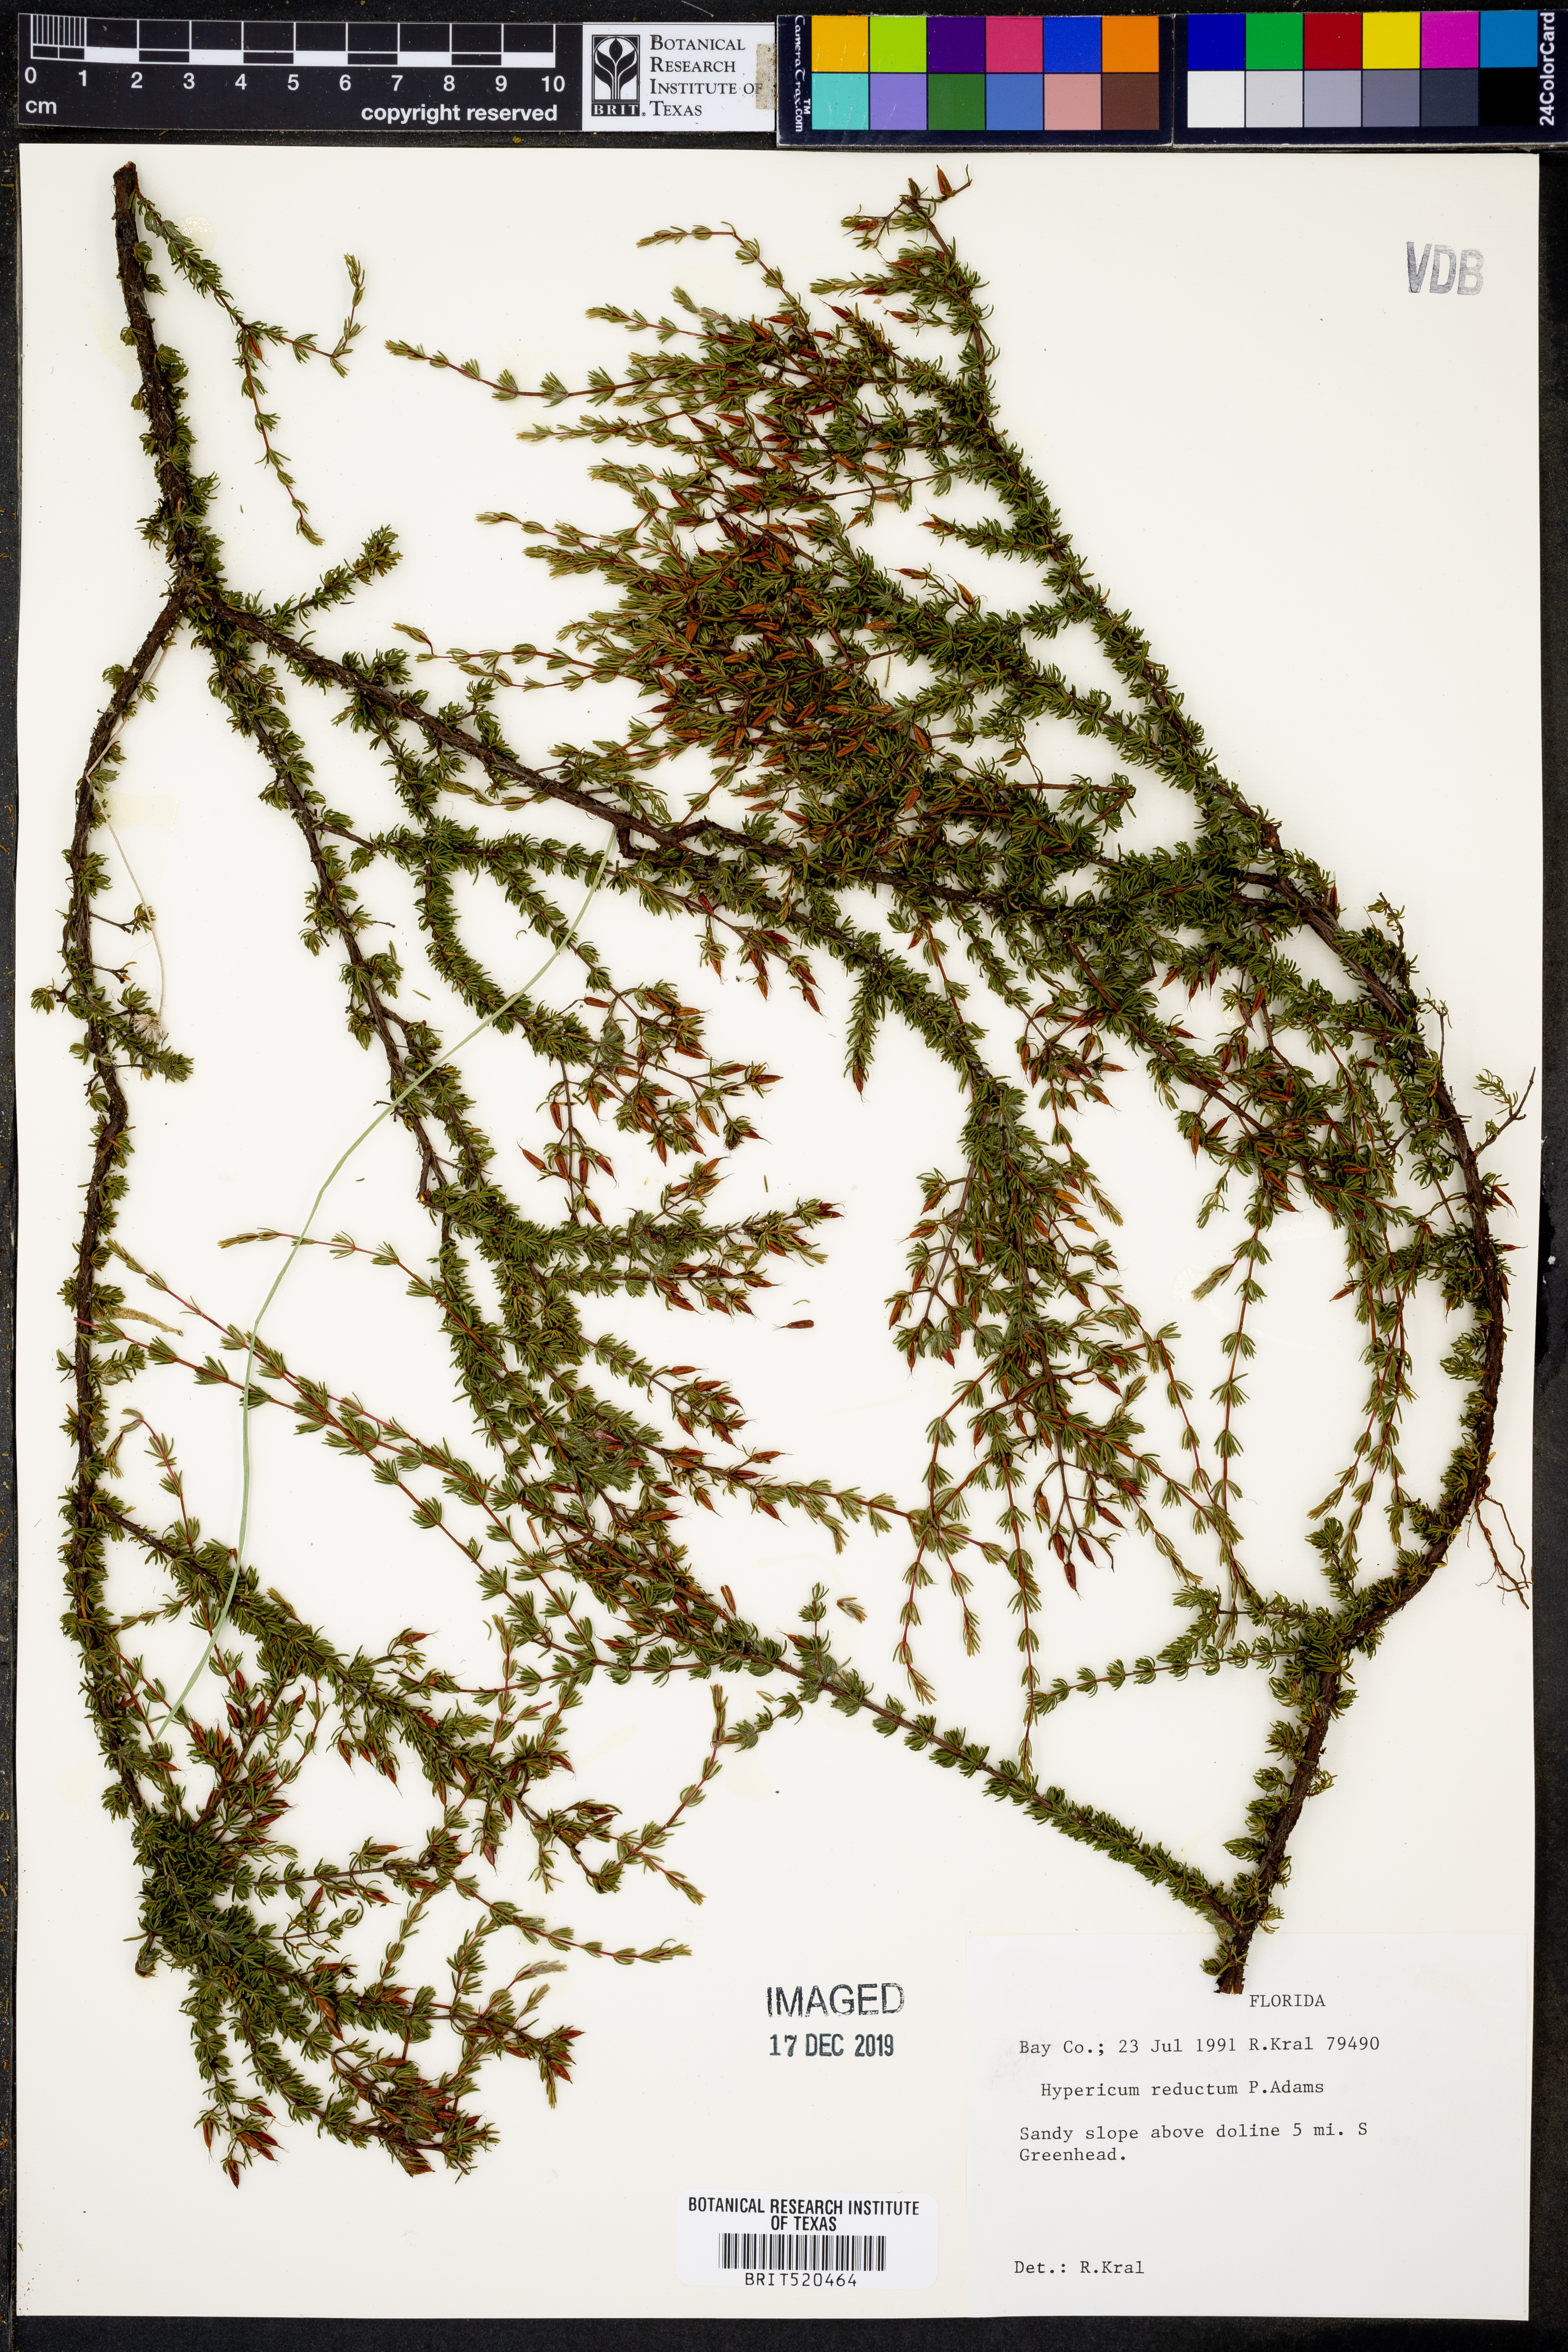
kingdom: Plantae
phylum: Tracheophyta
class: Magnoliopsida
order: Malpighiales
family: Hypericaceae
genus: Hypericum
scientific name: Hypericum tenuifolium
